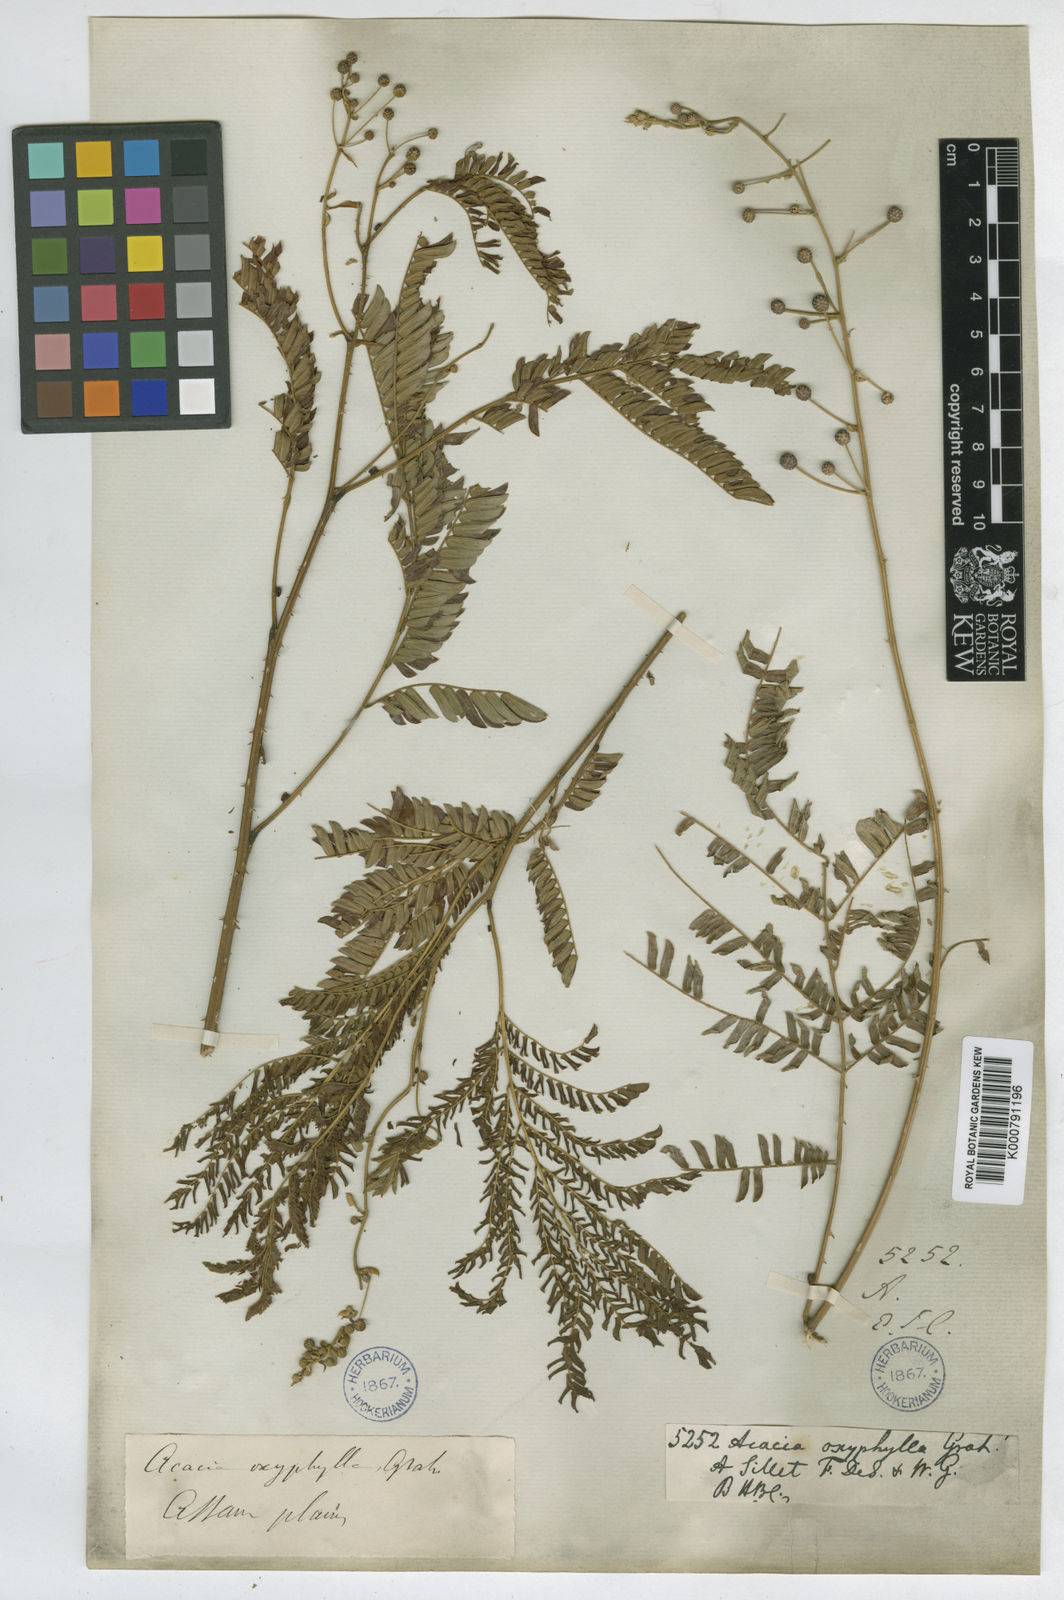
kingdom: Plantae
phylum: Tracheophyta
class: Magnoliopsida
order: Fabales
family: Fabaceae
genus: Acacia
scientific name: Acacia
